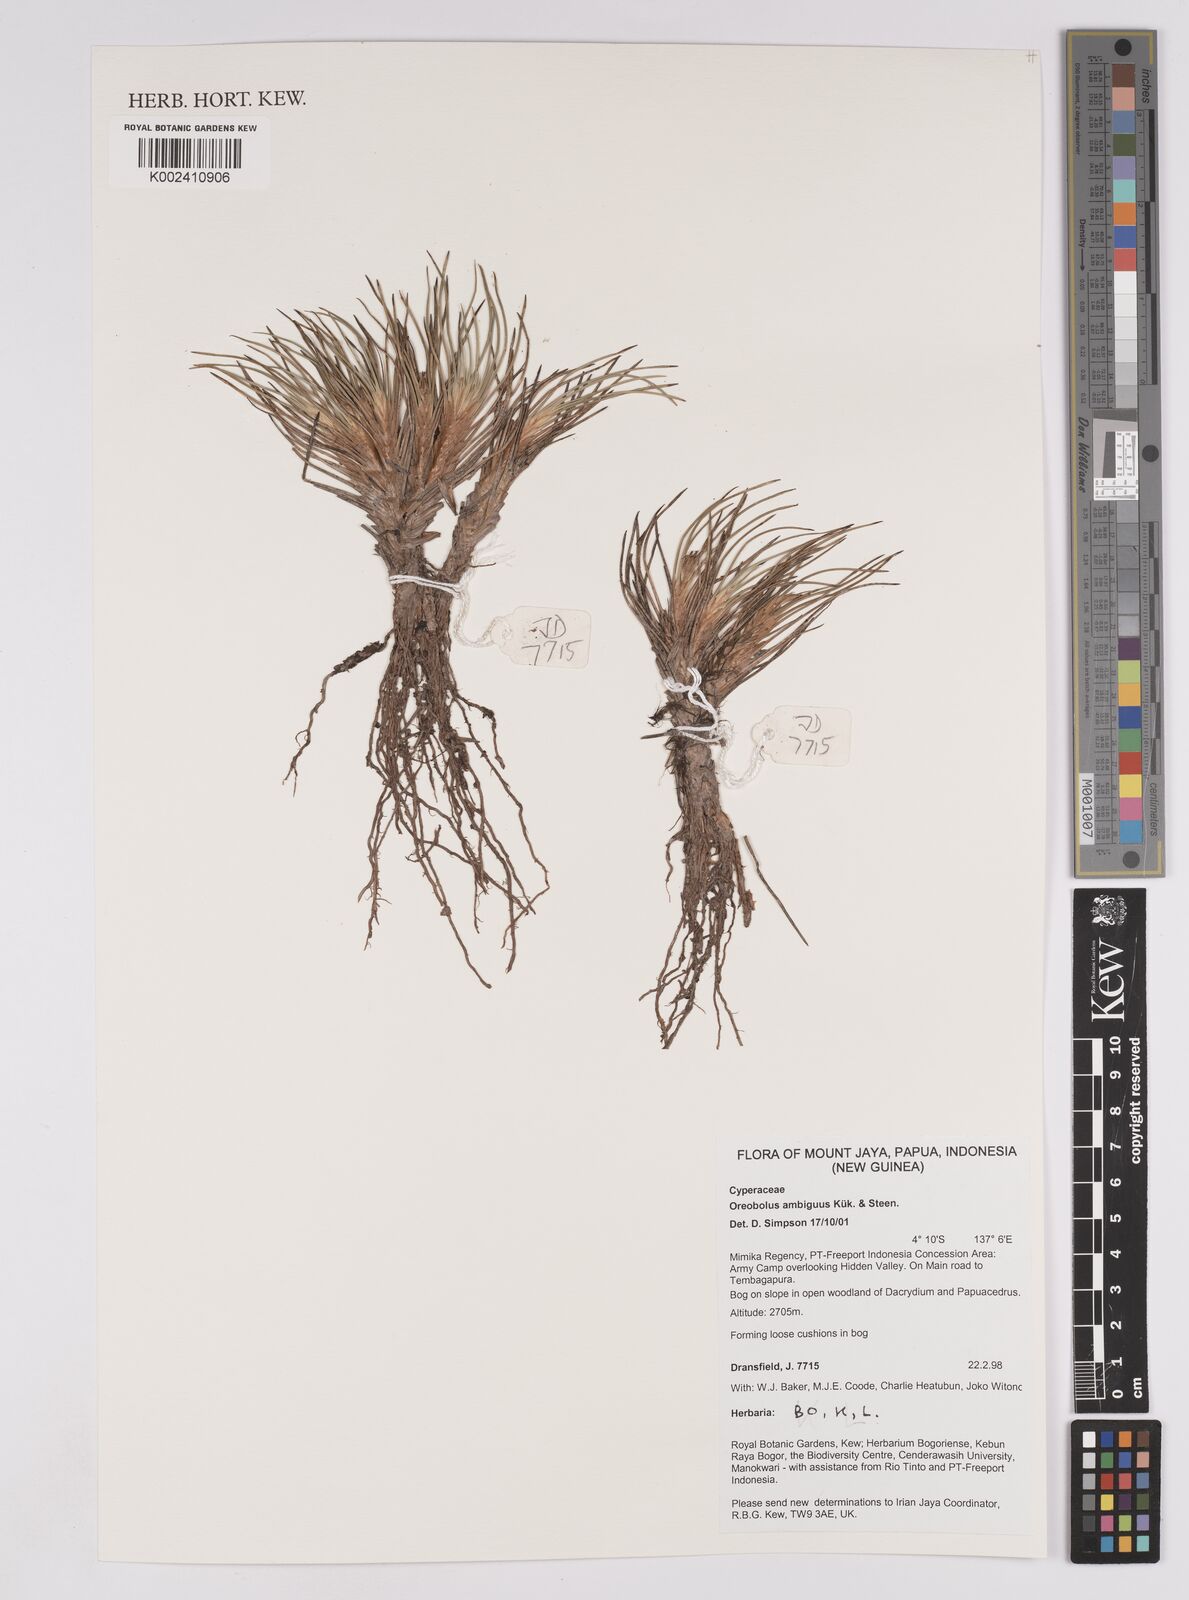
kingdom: Plantae
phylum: Tracheophyta
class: Liliopsida
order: Poales
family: Cyperaceae
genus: Oreobolus
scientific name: Oreobolus ambiguus
